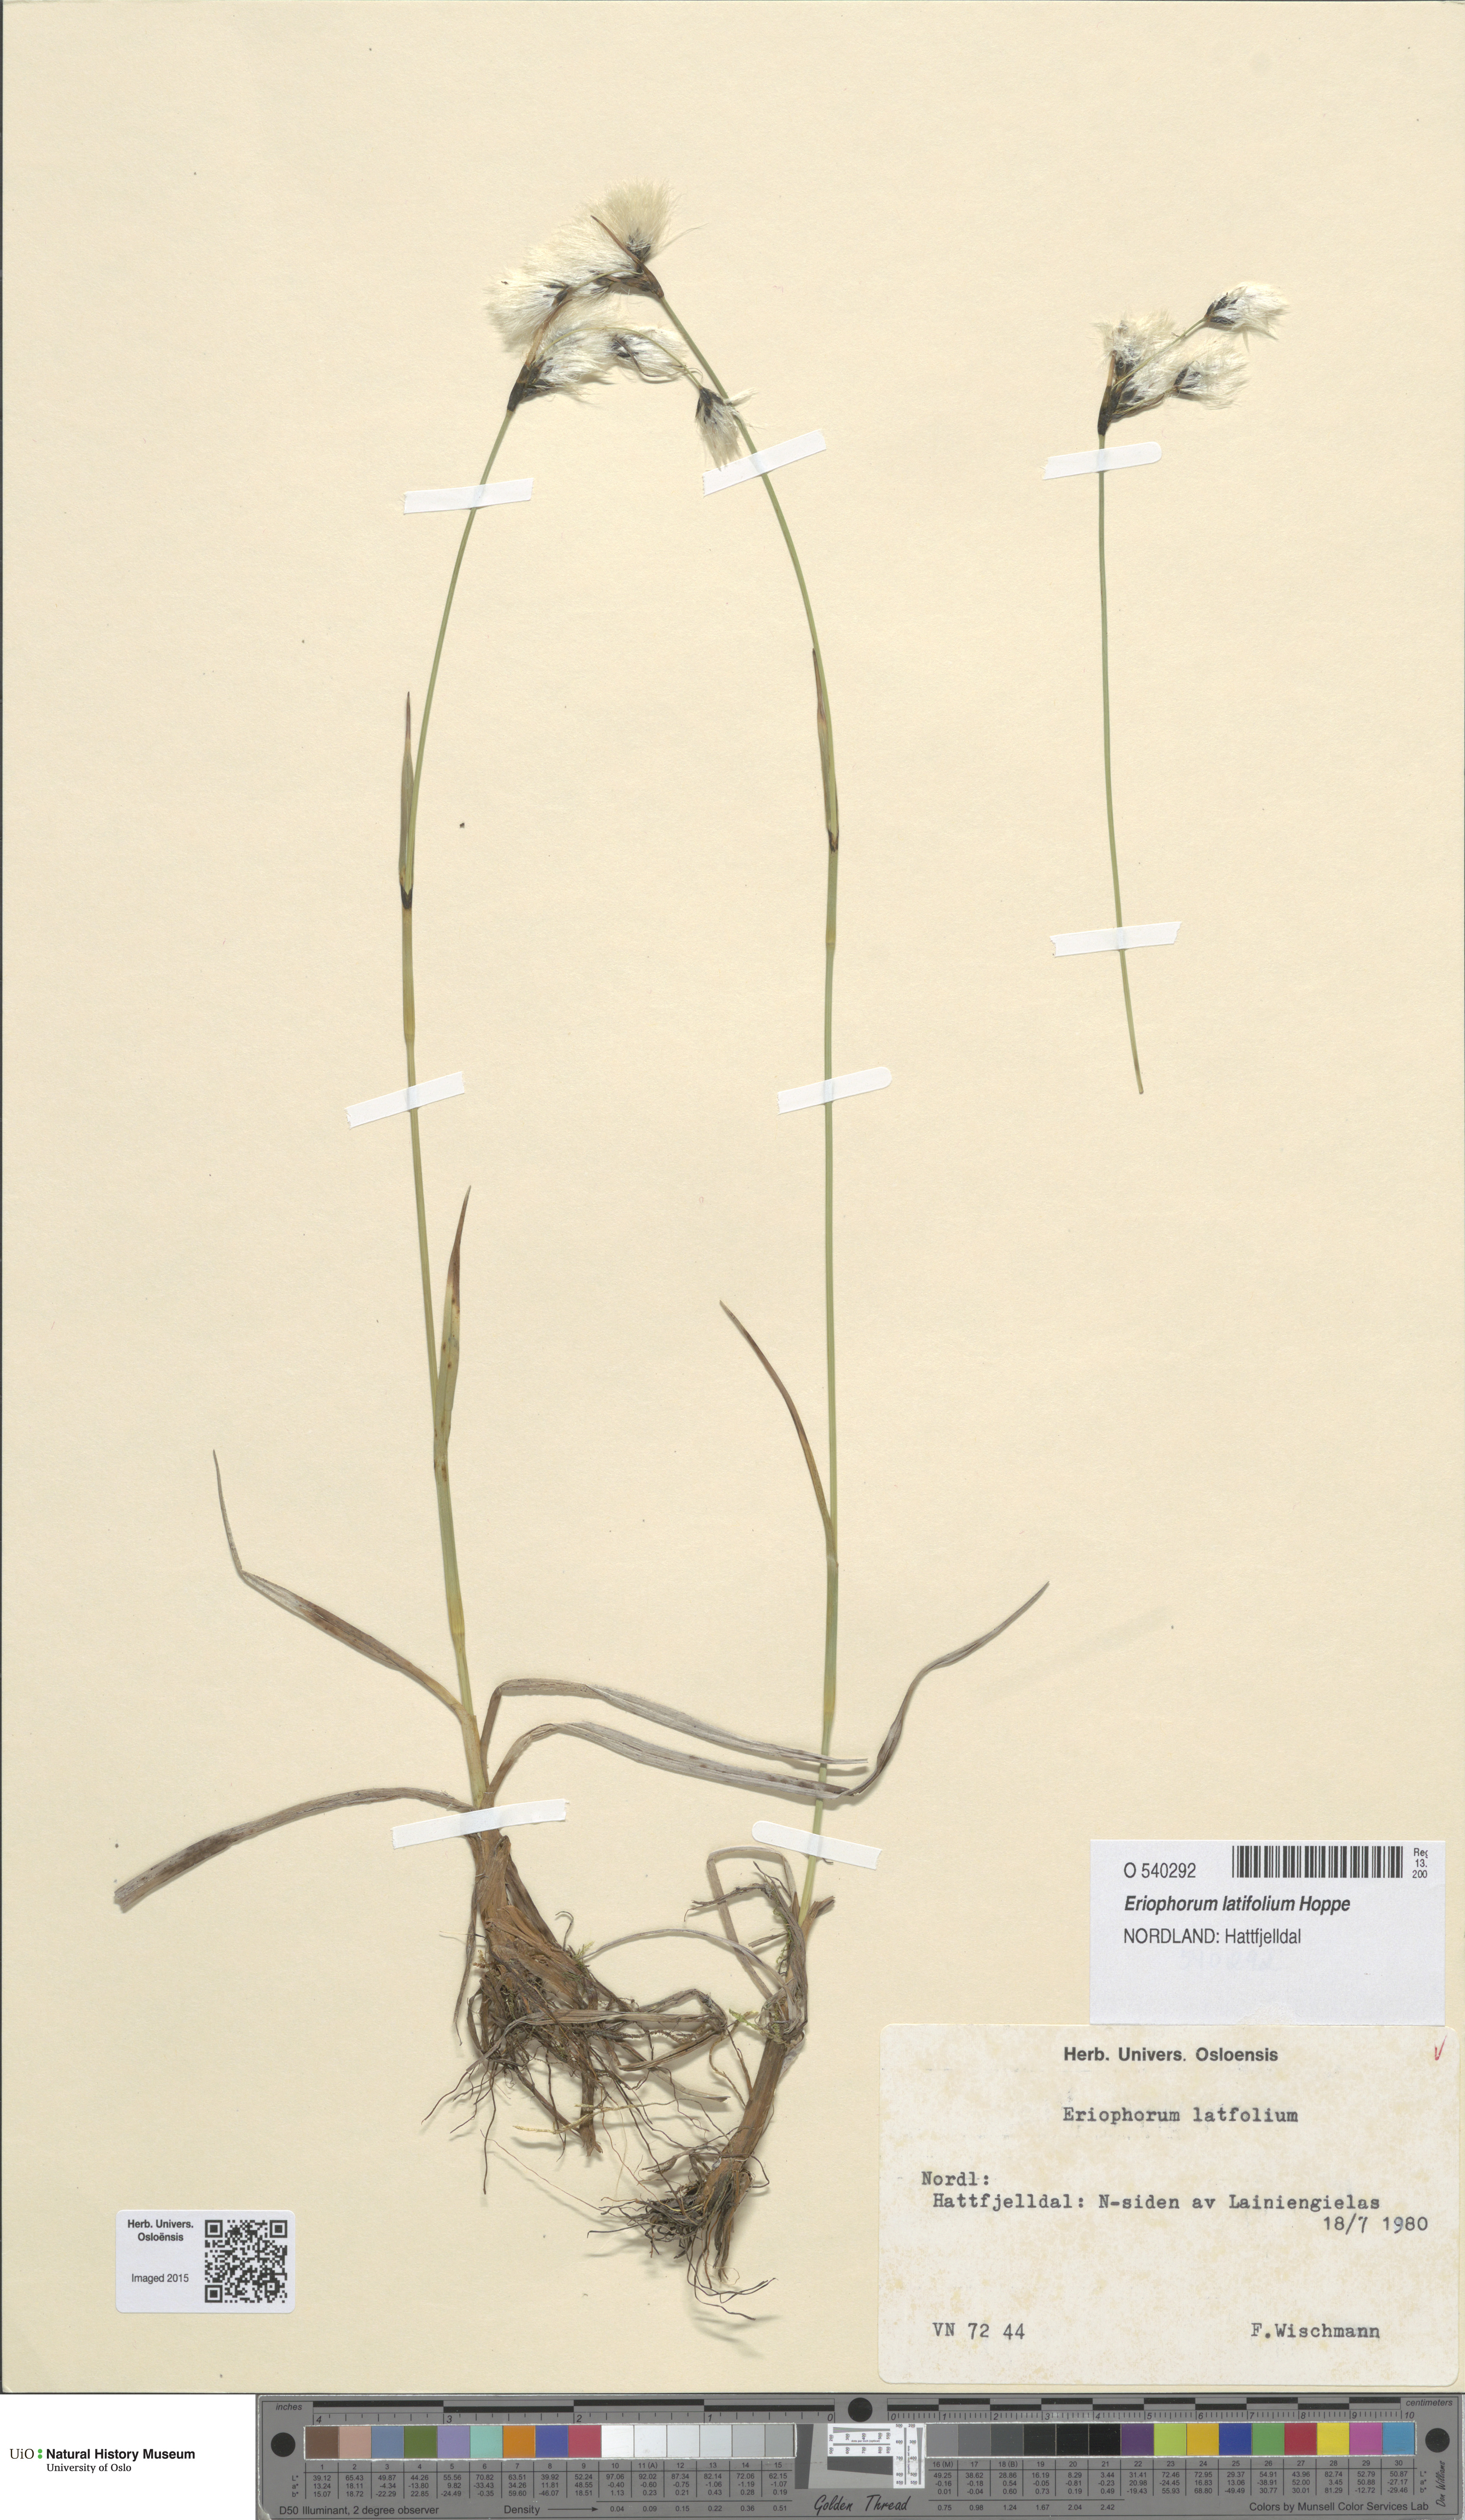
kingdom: Plantae
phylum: Tracheophyta
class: Liliopsida
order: Poales
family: Cyperaceae
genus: Eriophorum
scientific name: Eriophorum latifolium
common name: Broad-leaved cottongrass
